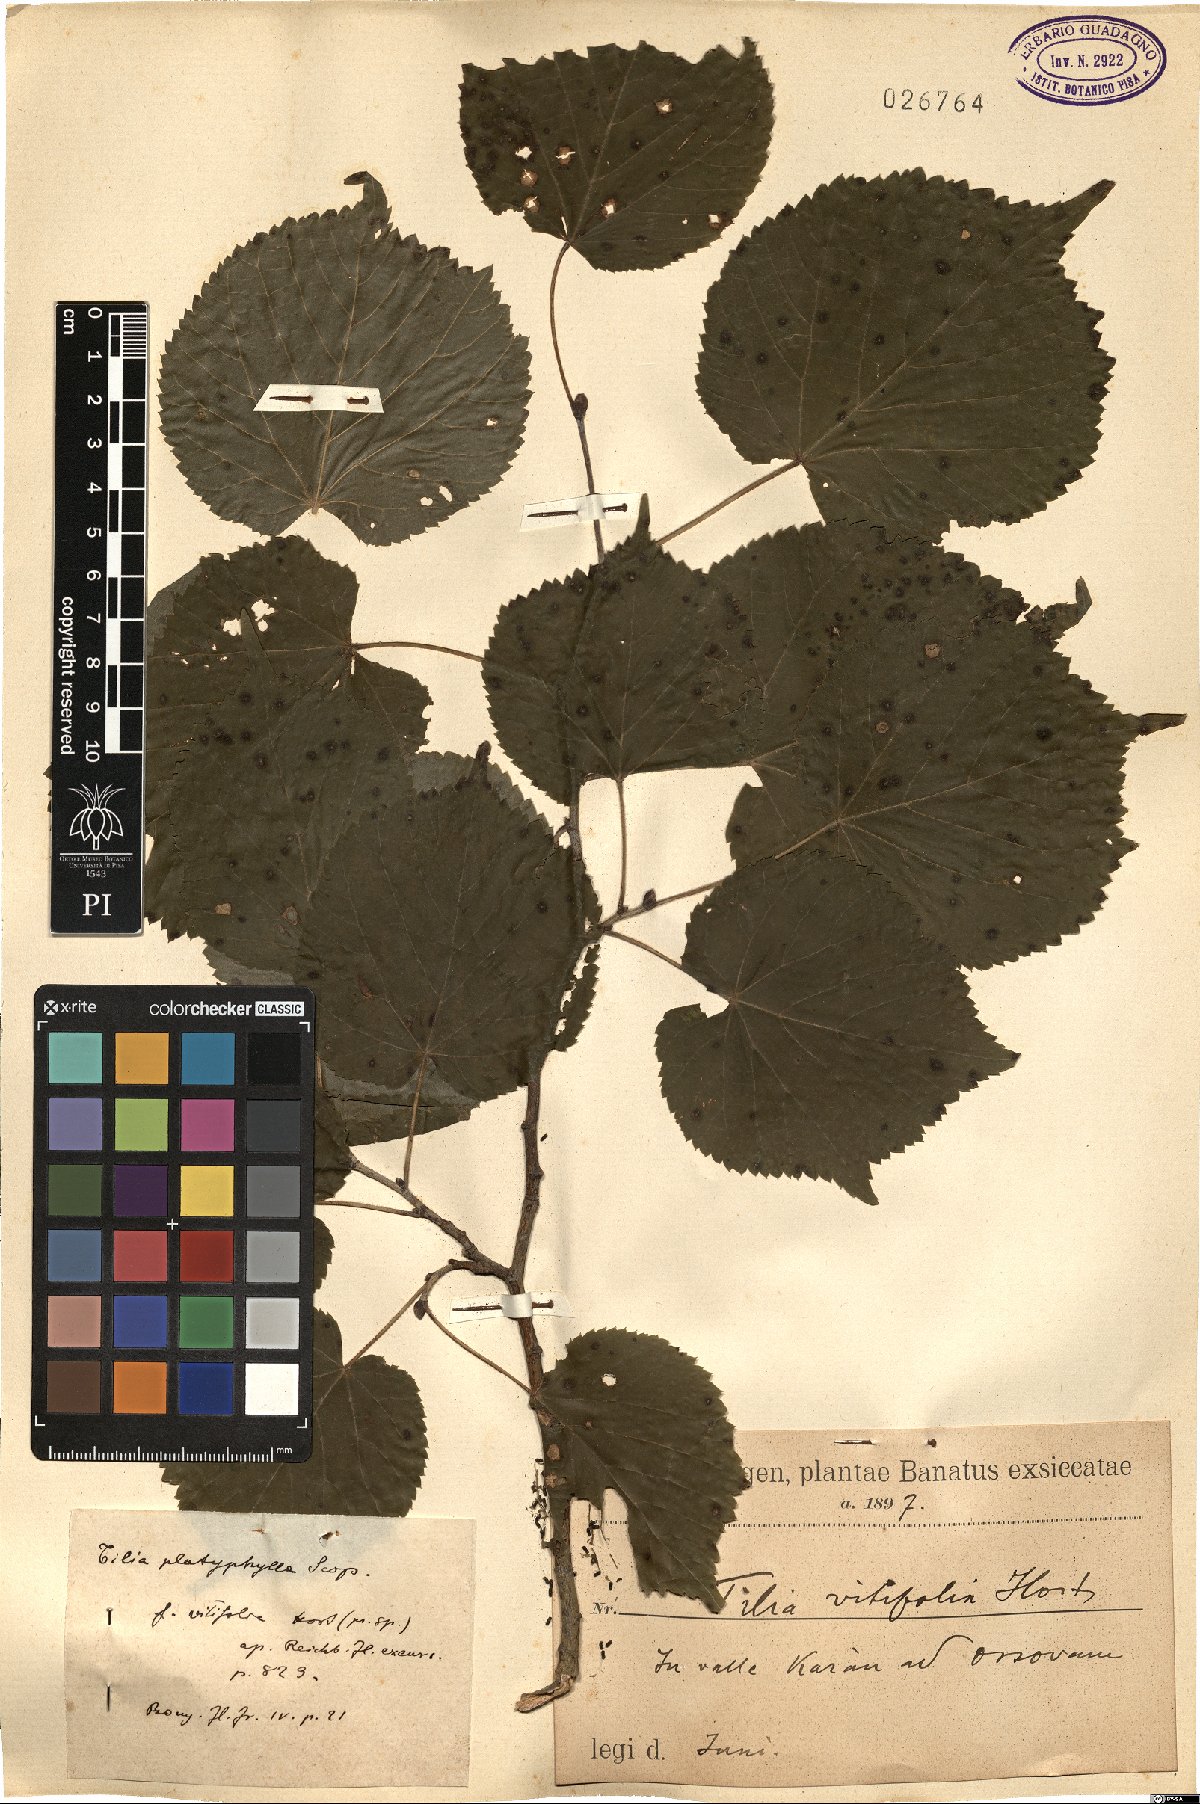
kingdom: Plantae
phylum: Tracheophyta
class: Magnoliopsida
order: Malvales
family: Malvaceae
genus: Tilia
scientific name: Tilia platyphyllos
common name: Large-leaved lime
